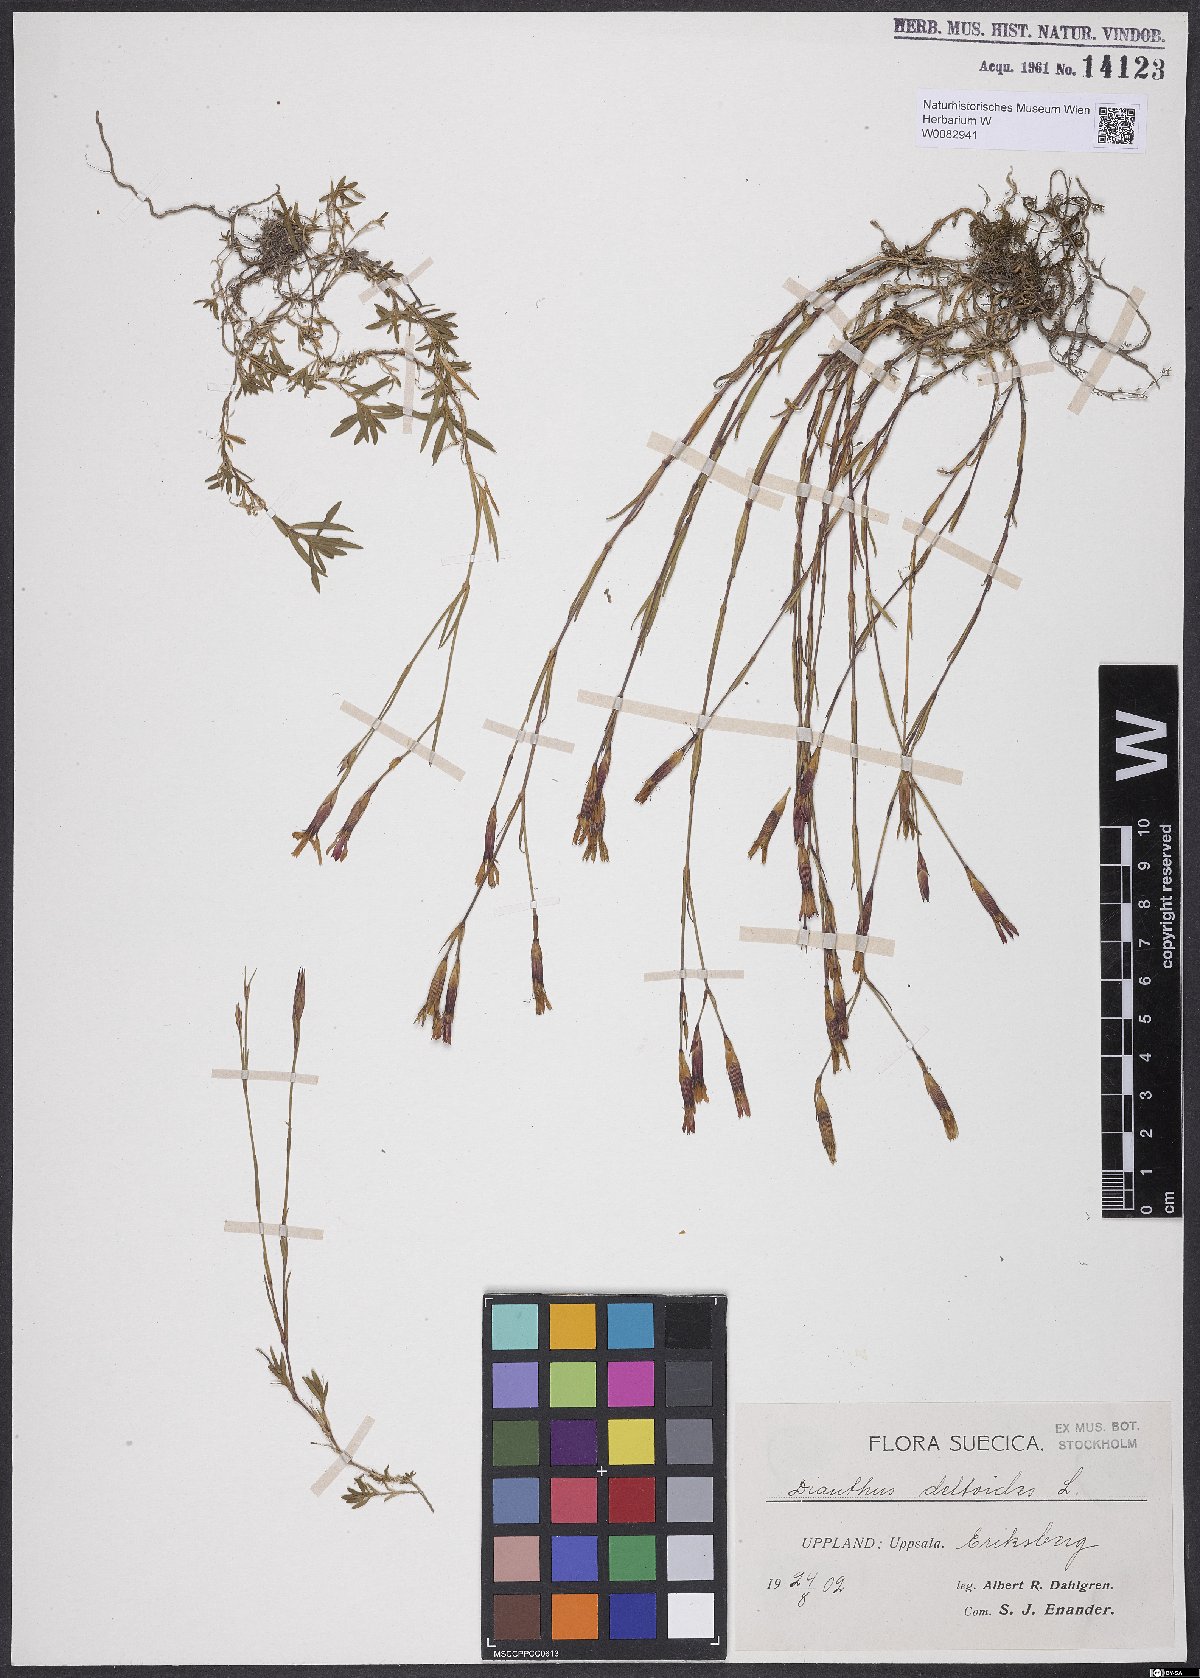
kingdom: Plantae
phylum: Tracheophyta
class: Magnoliopsida
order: Caryophyllales
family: Caryophyllaceae
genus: Dianthus
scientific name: Dianthus deltoides
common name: Maiden pink
